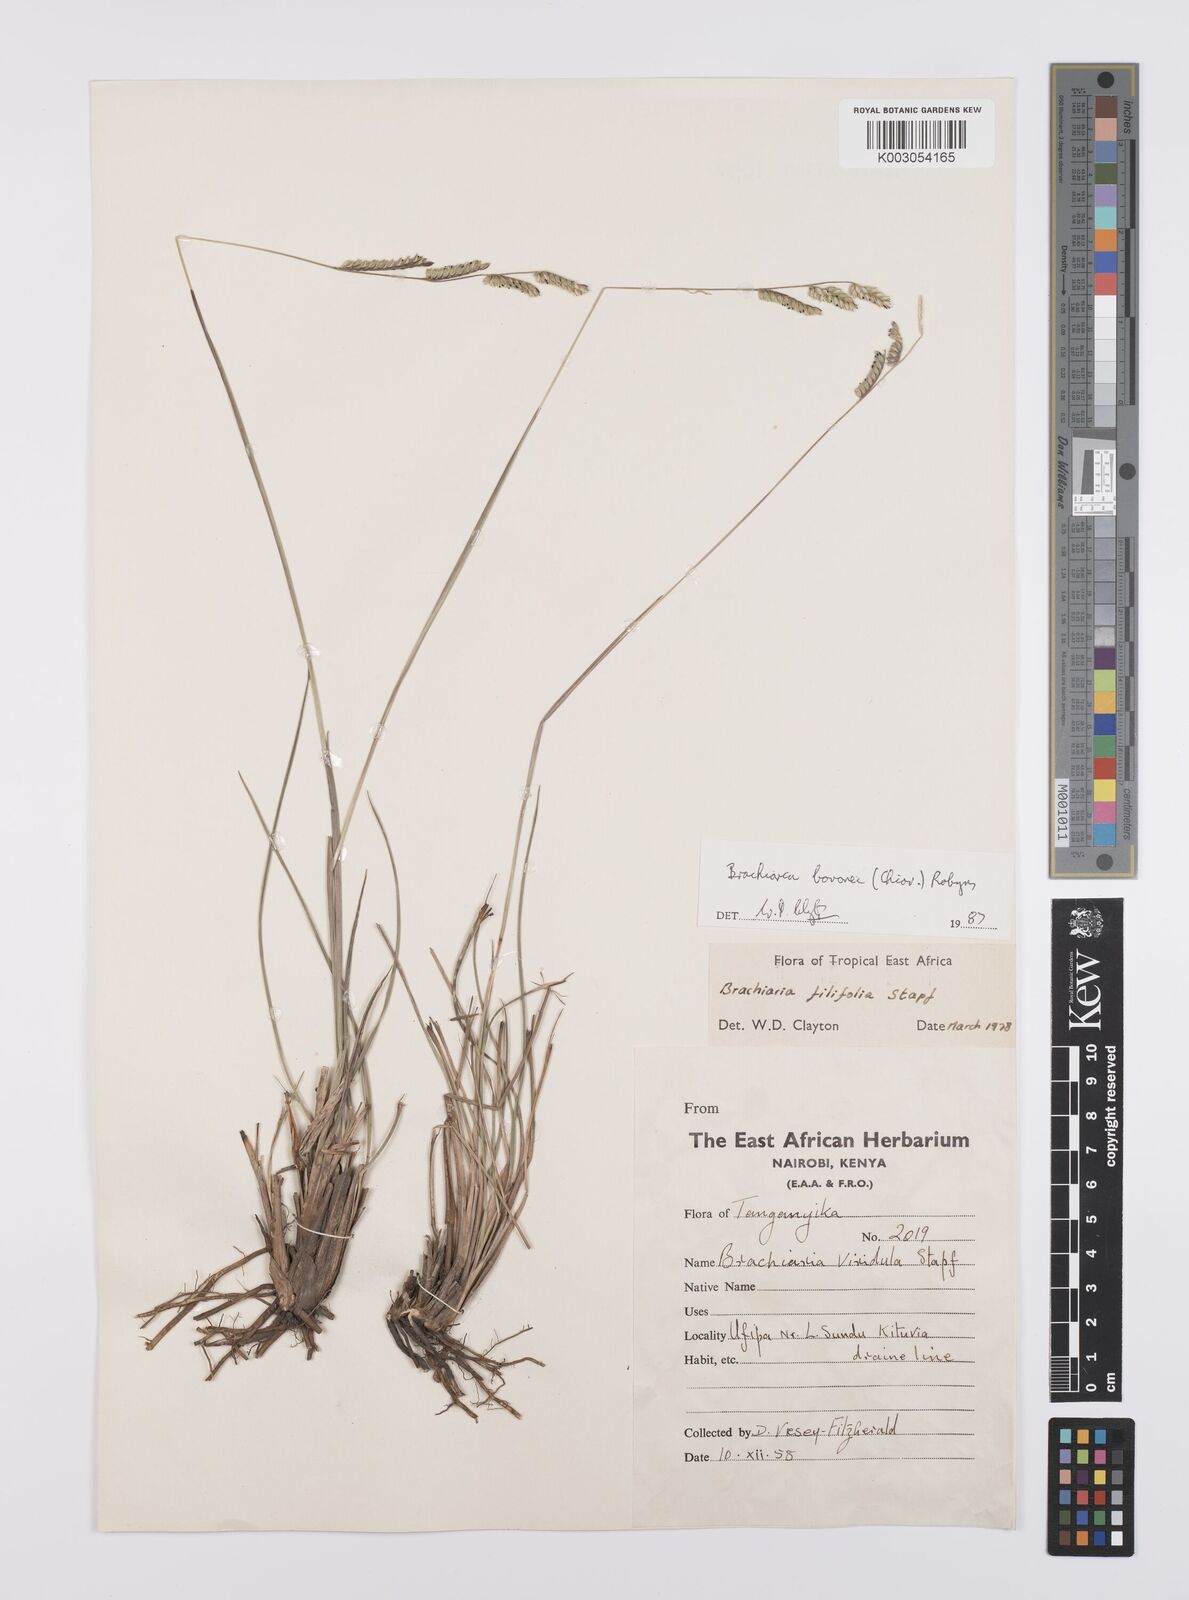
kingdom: Plantae
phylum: Tracheophyta
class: Liliopsida
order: Poales
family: Poaceae
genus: Urochloa
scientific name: Urochloa bovonei
